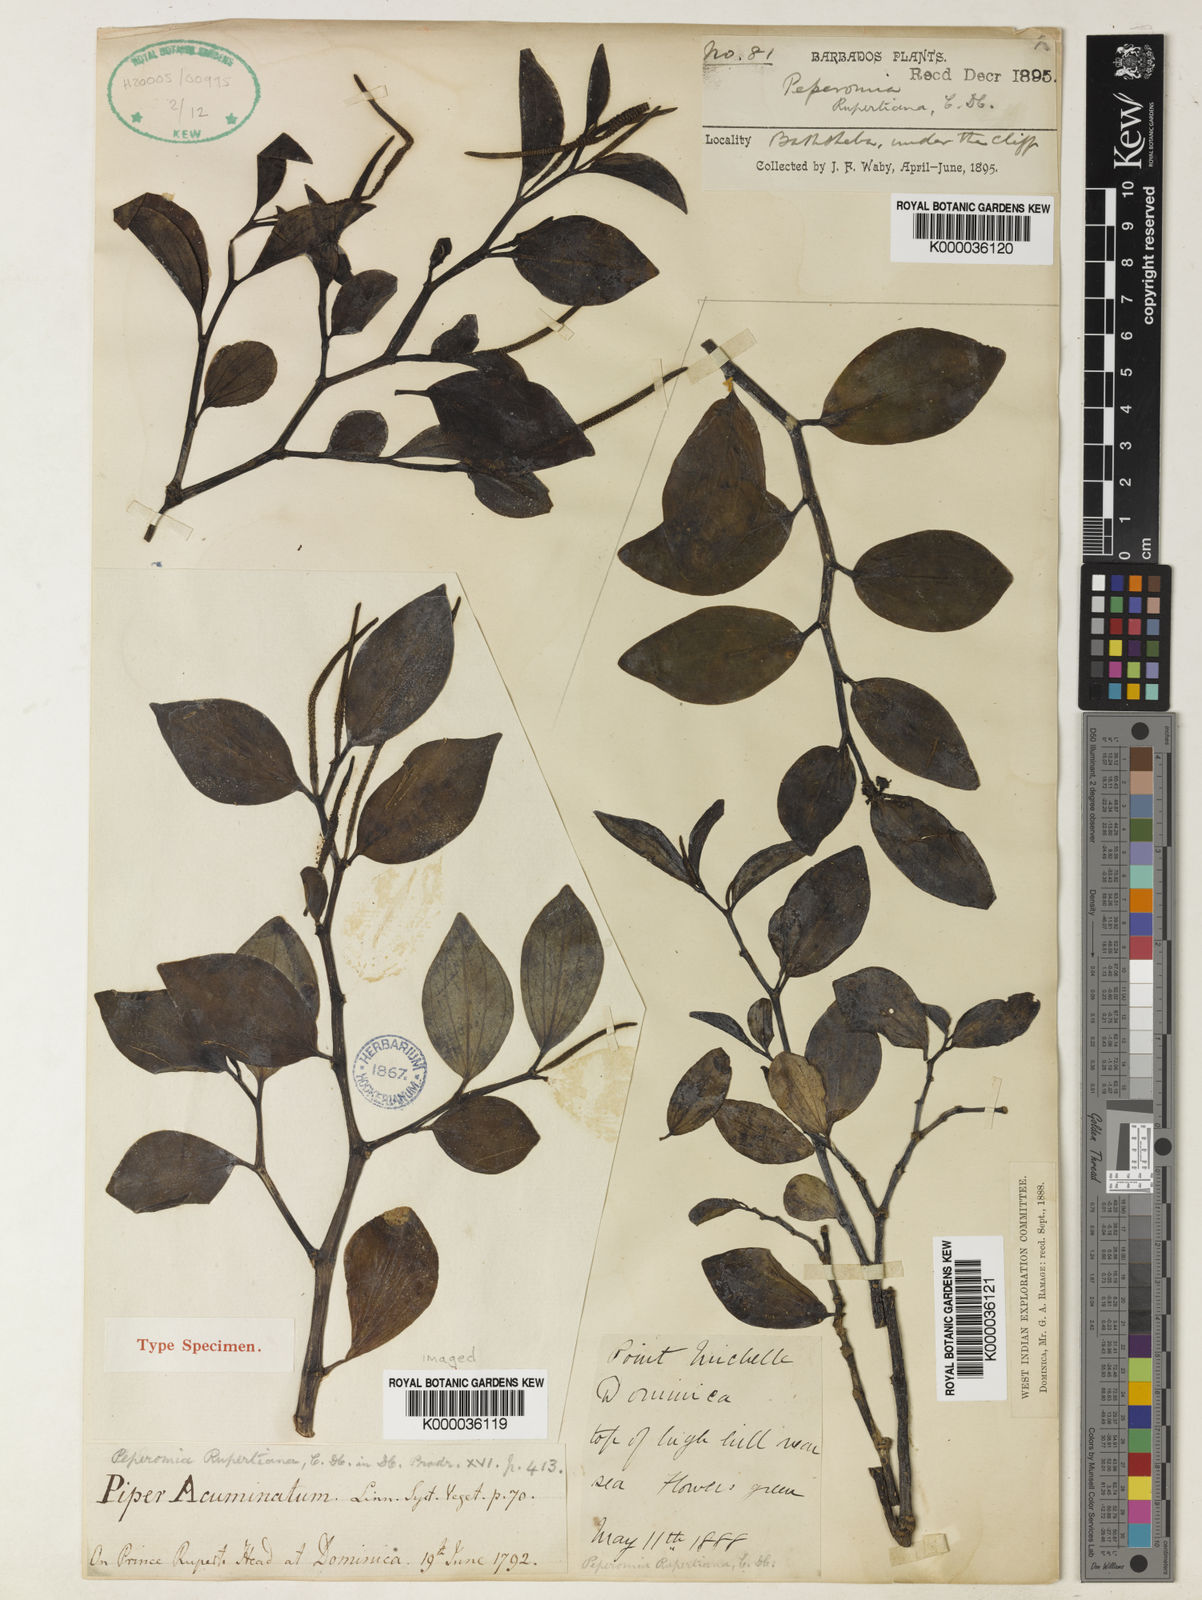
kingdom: Plantae
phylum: Tracheophyta
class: Magnoliopsida
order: Piperales
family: Piperaceae
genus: Peperomia
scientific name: Peperomia myrtifolia
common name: Myrtleleaf peperomia
